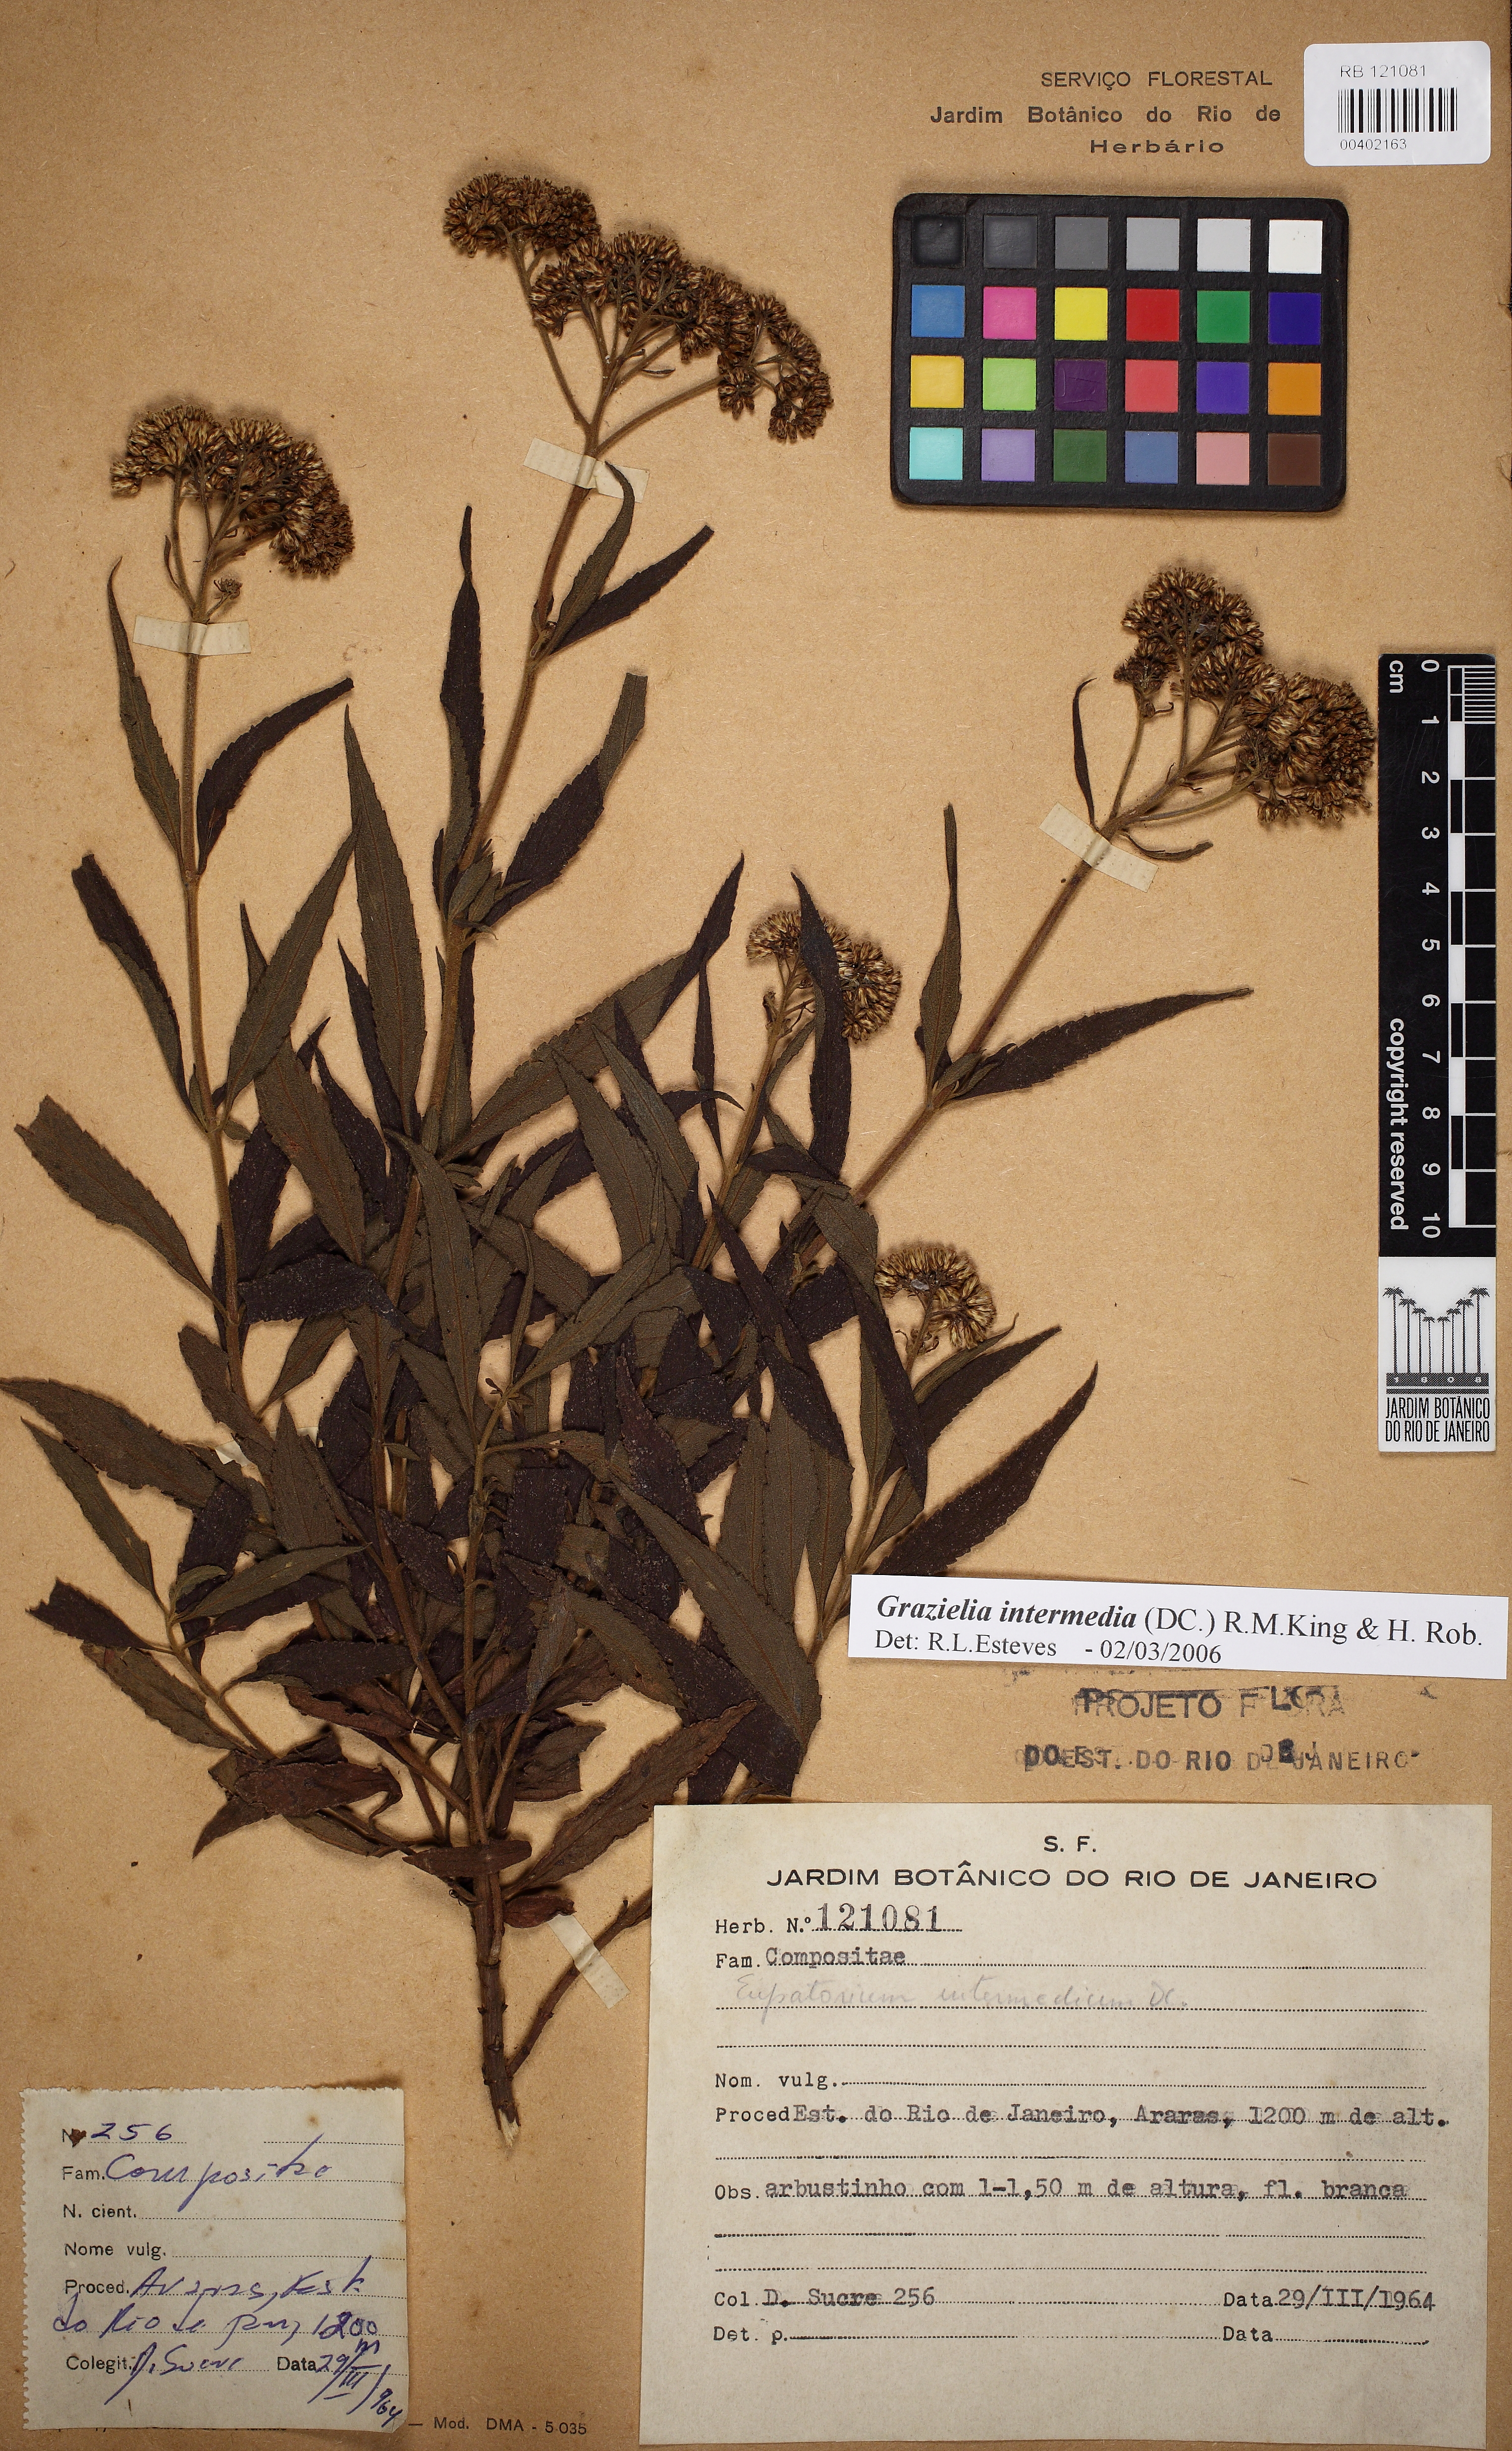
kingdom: Plantae
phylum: Tracheophyta
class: Magnoliopsida
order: Asterales
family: Asteraceae
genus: Grazielia
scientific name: Grazielia intermedia
